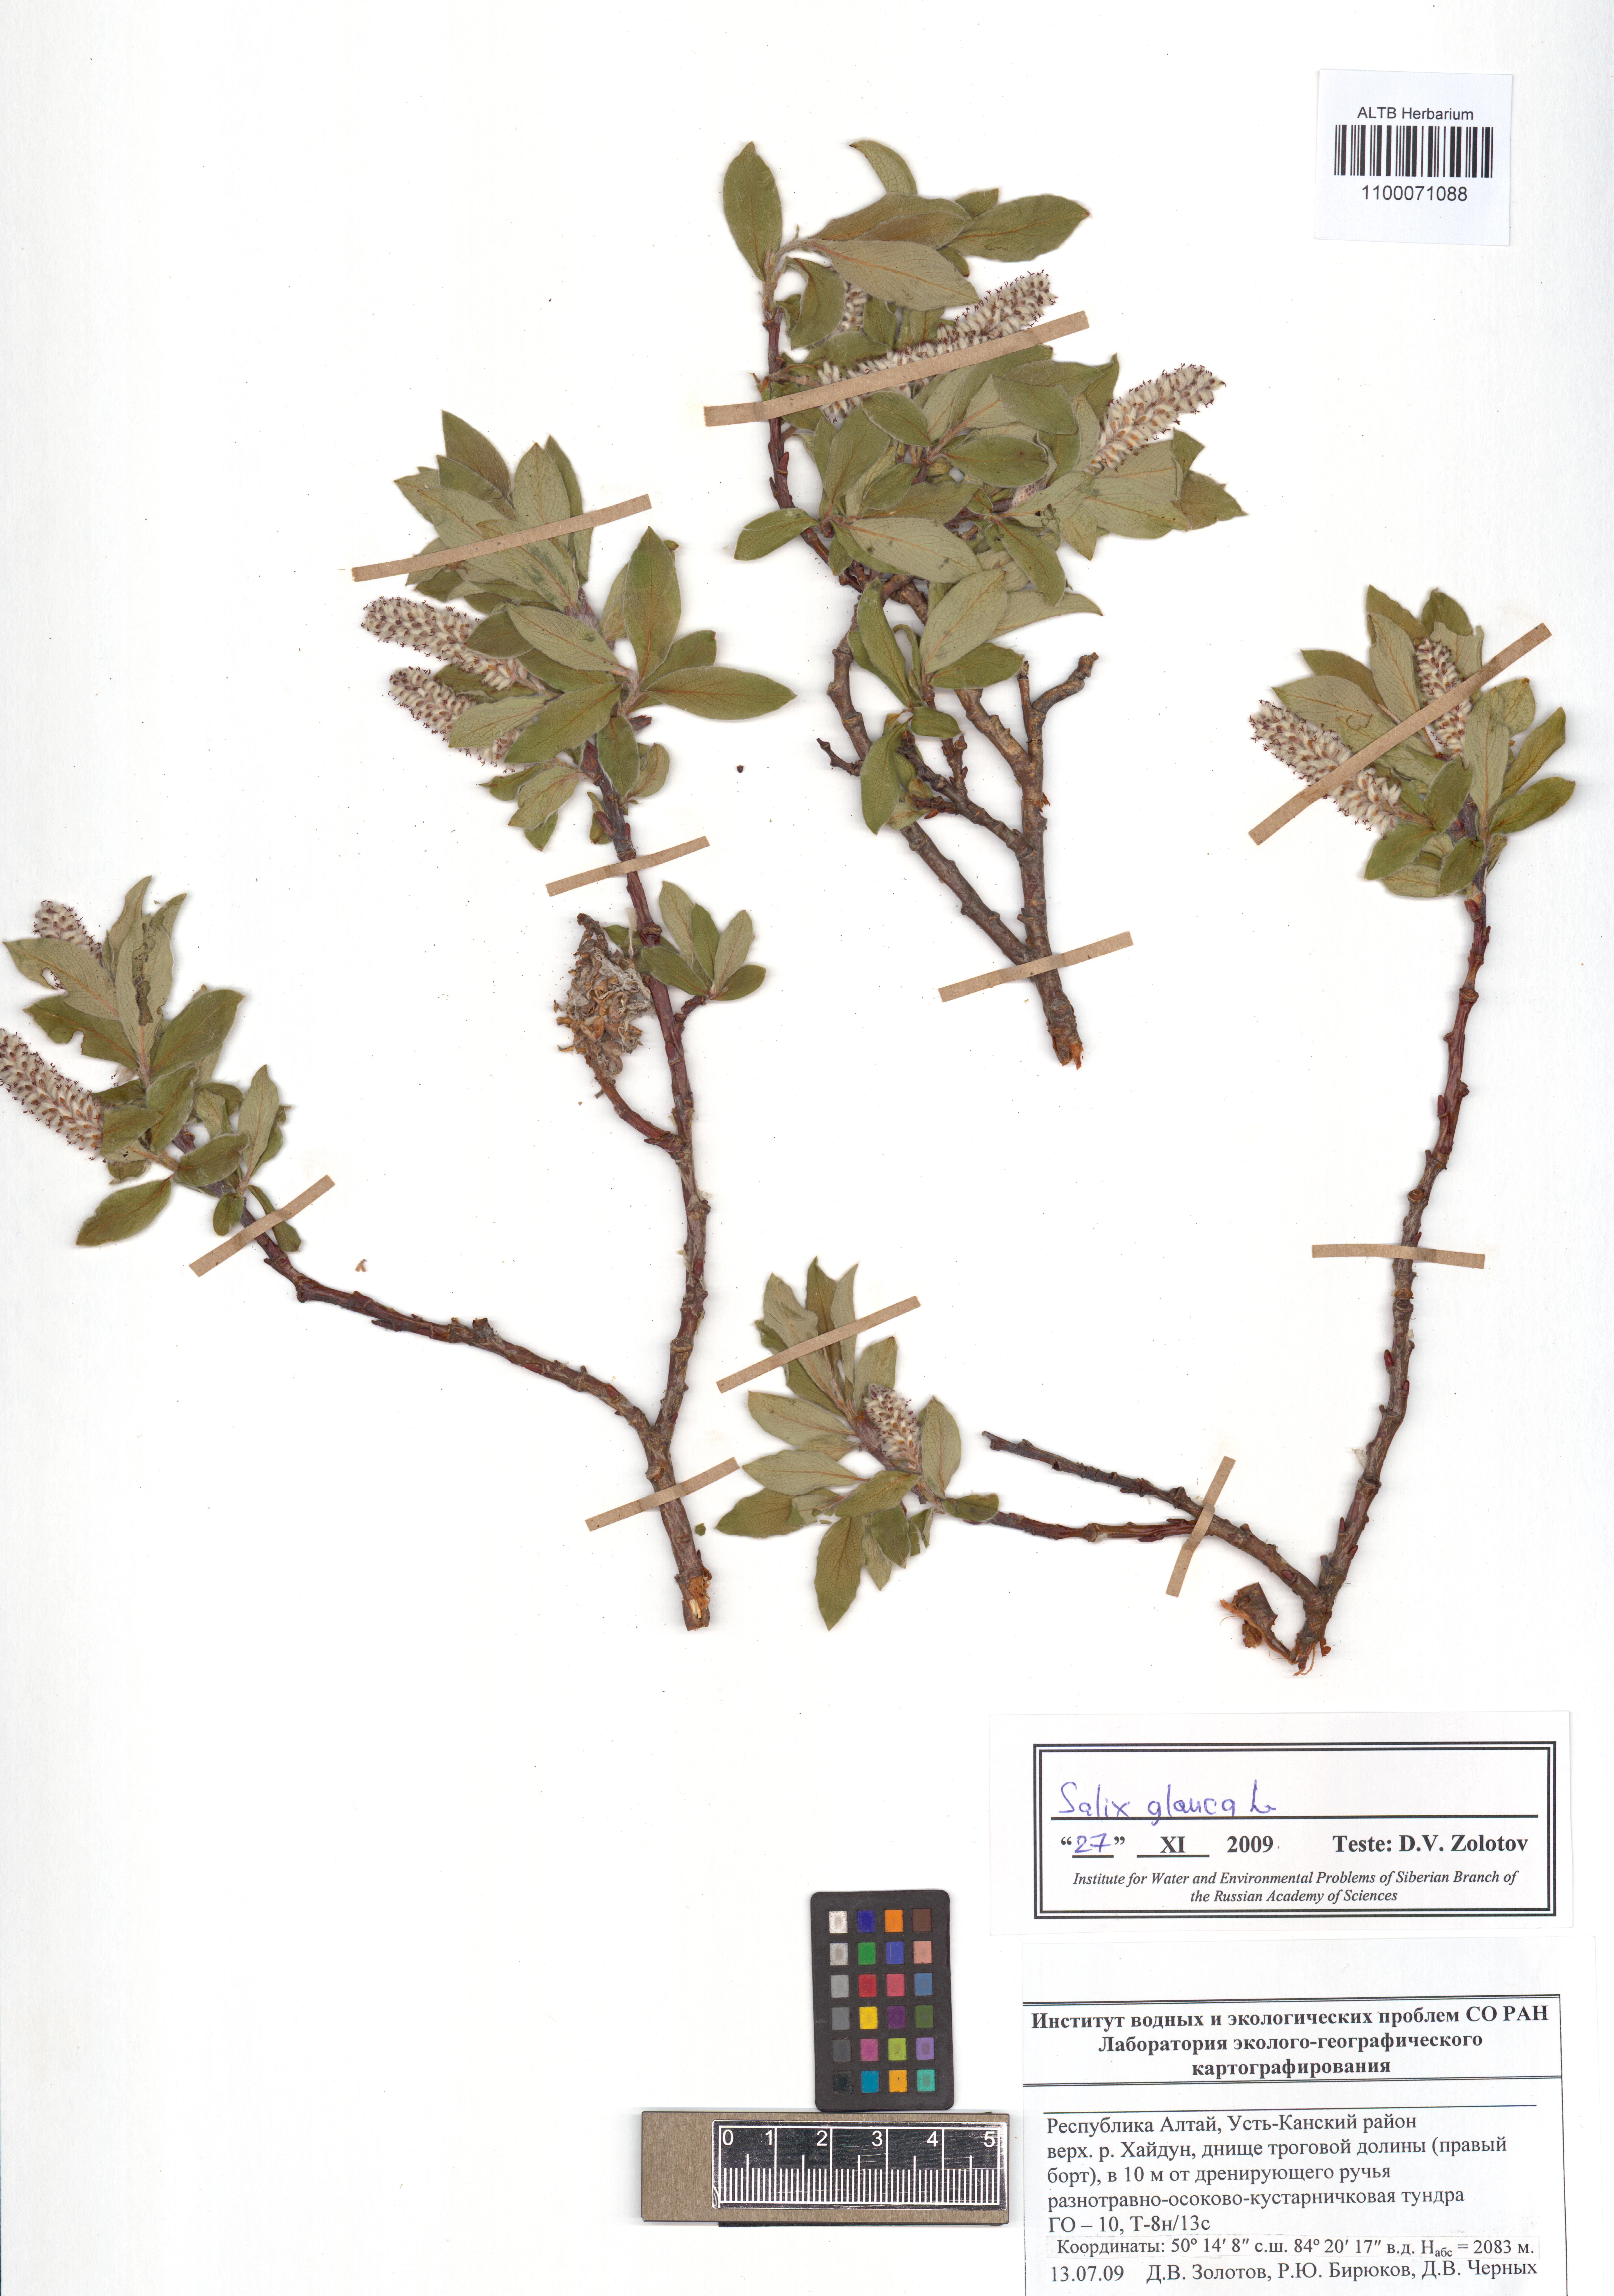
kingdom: Plantae
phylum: Tracheophyta
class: Magnoliopsida
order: Malpighiales
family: Salicaceae
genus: Salix
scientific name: Salix glauca
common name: Glaucous willow
